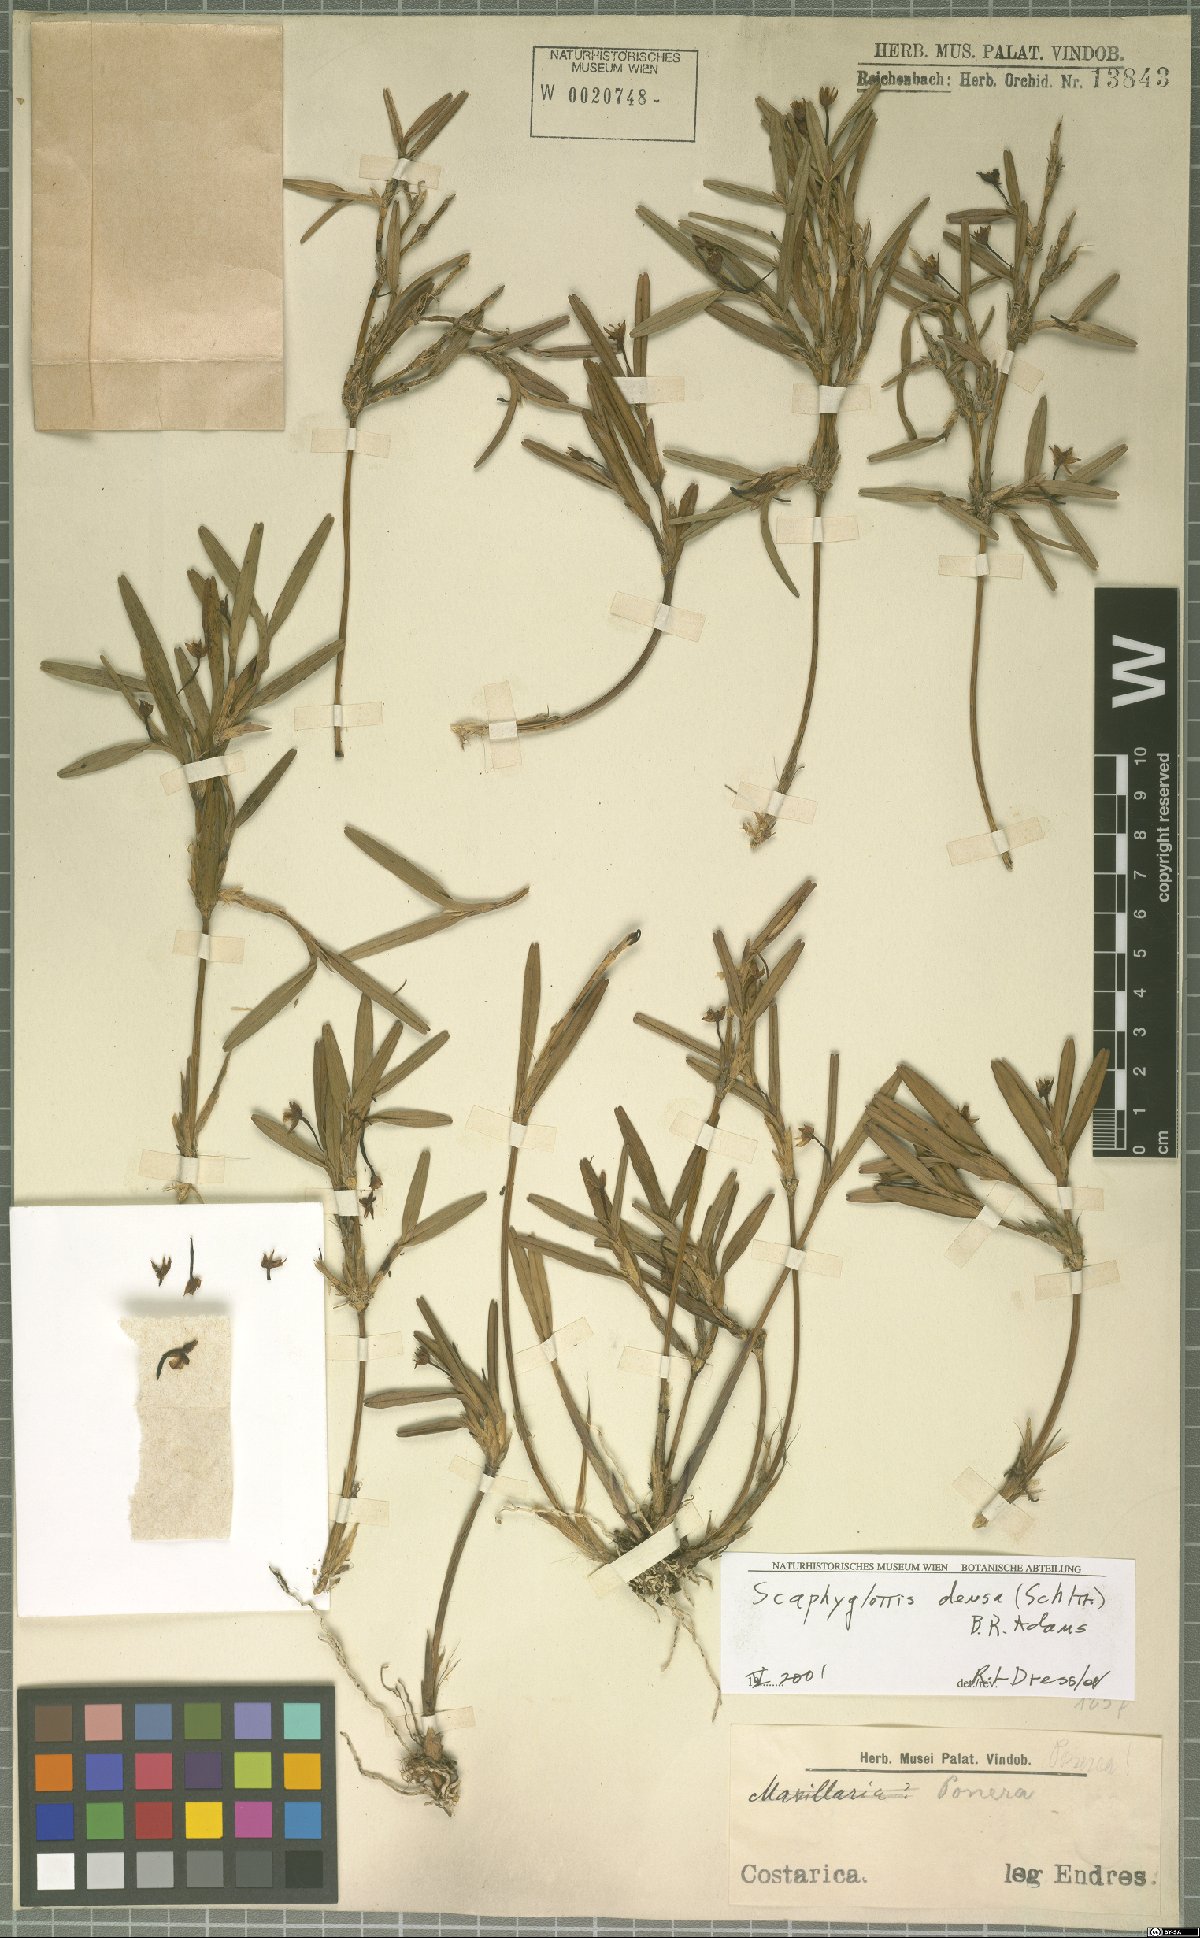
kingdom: Plantae
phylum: Tracheophyta
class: Liliopsida
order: Asparagales
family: Orchidaceae
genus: Scaphyglottis
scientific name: Scaphyglottis densa
